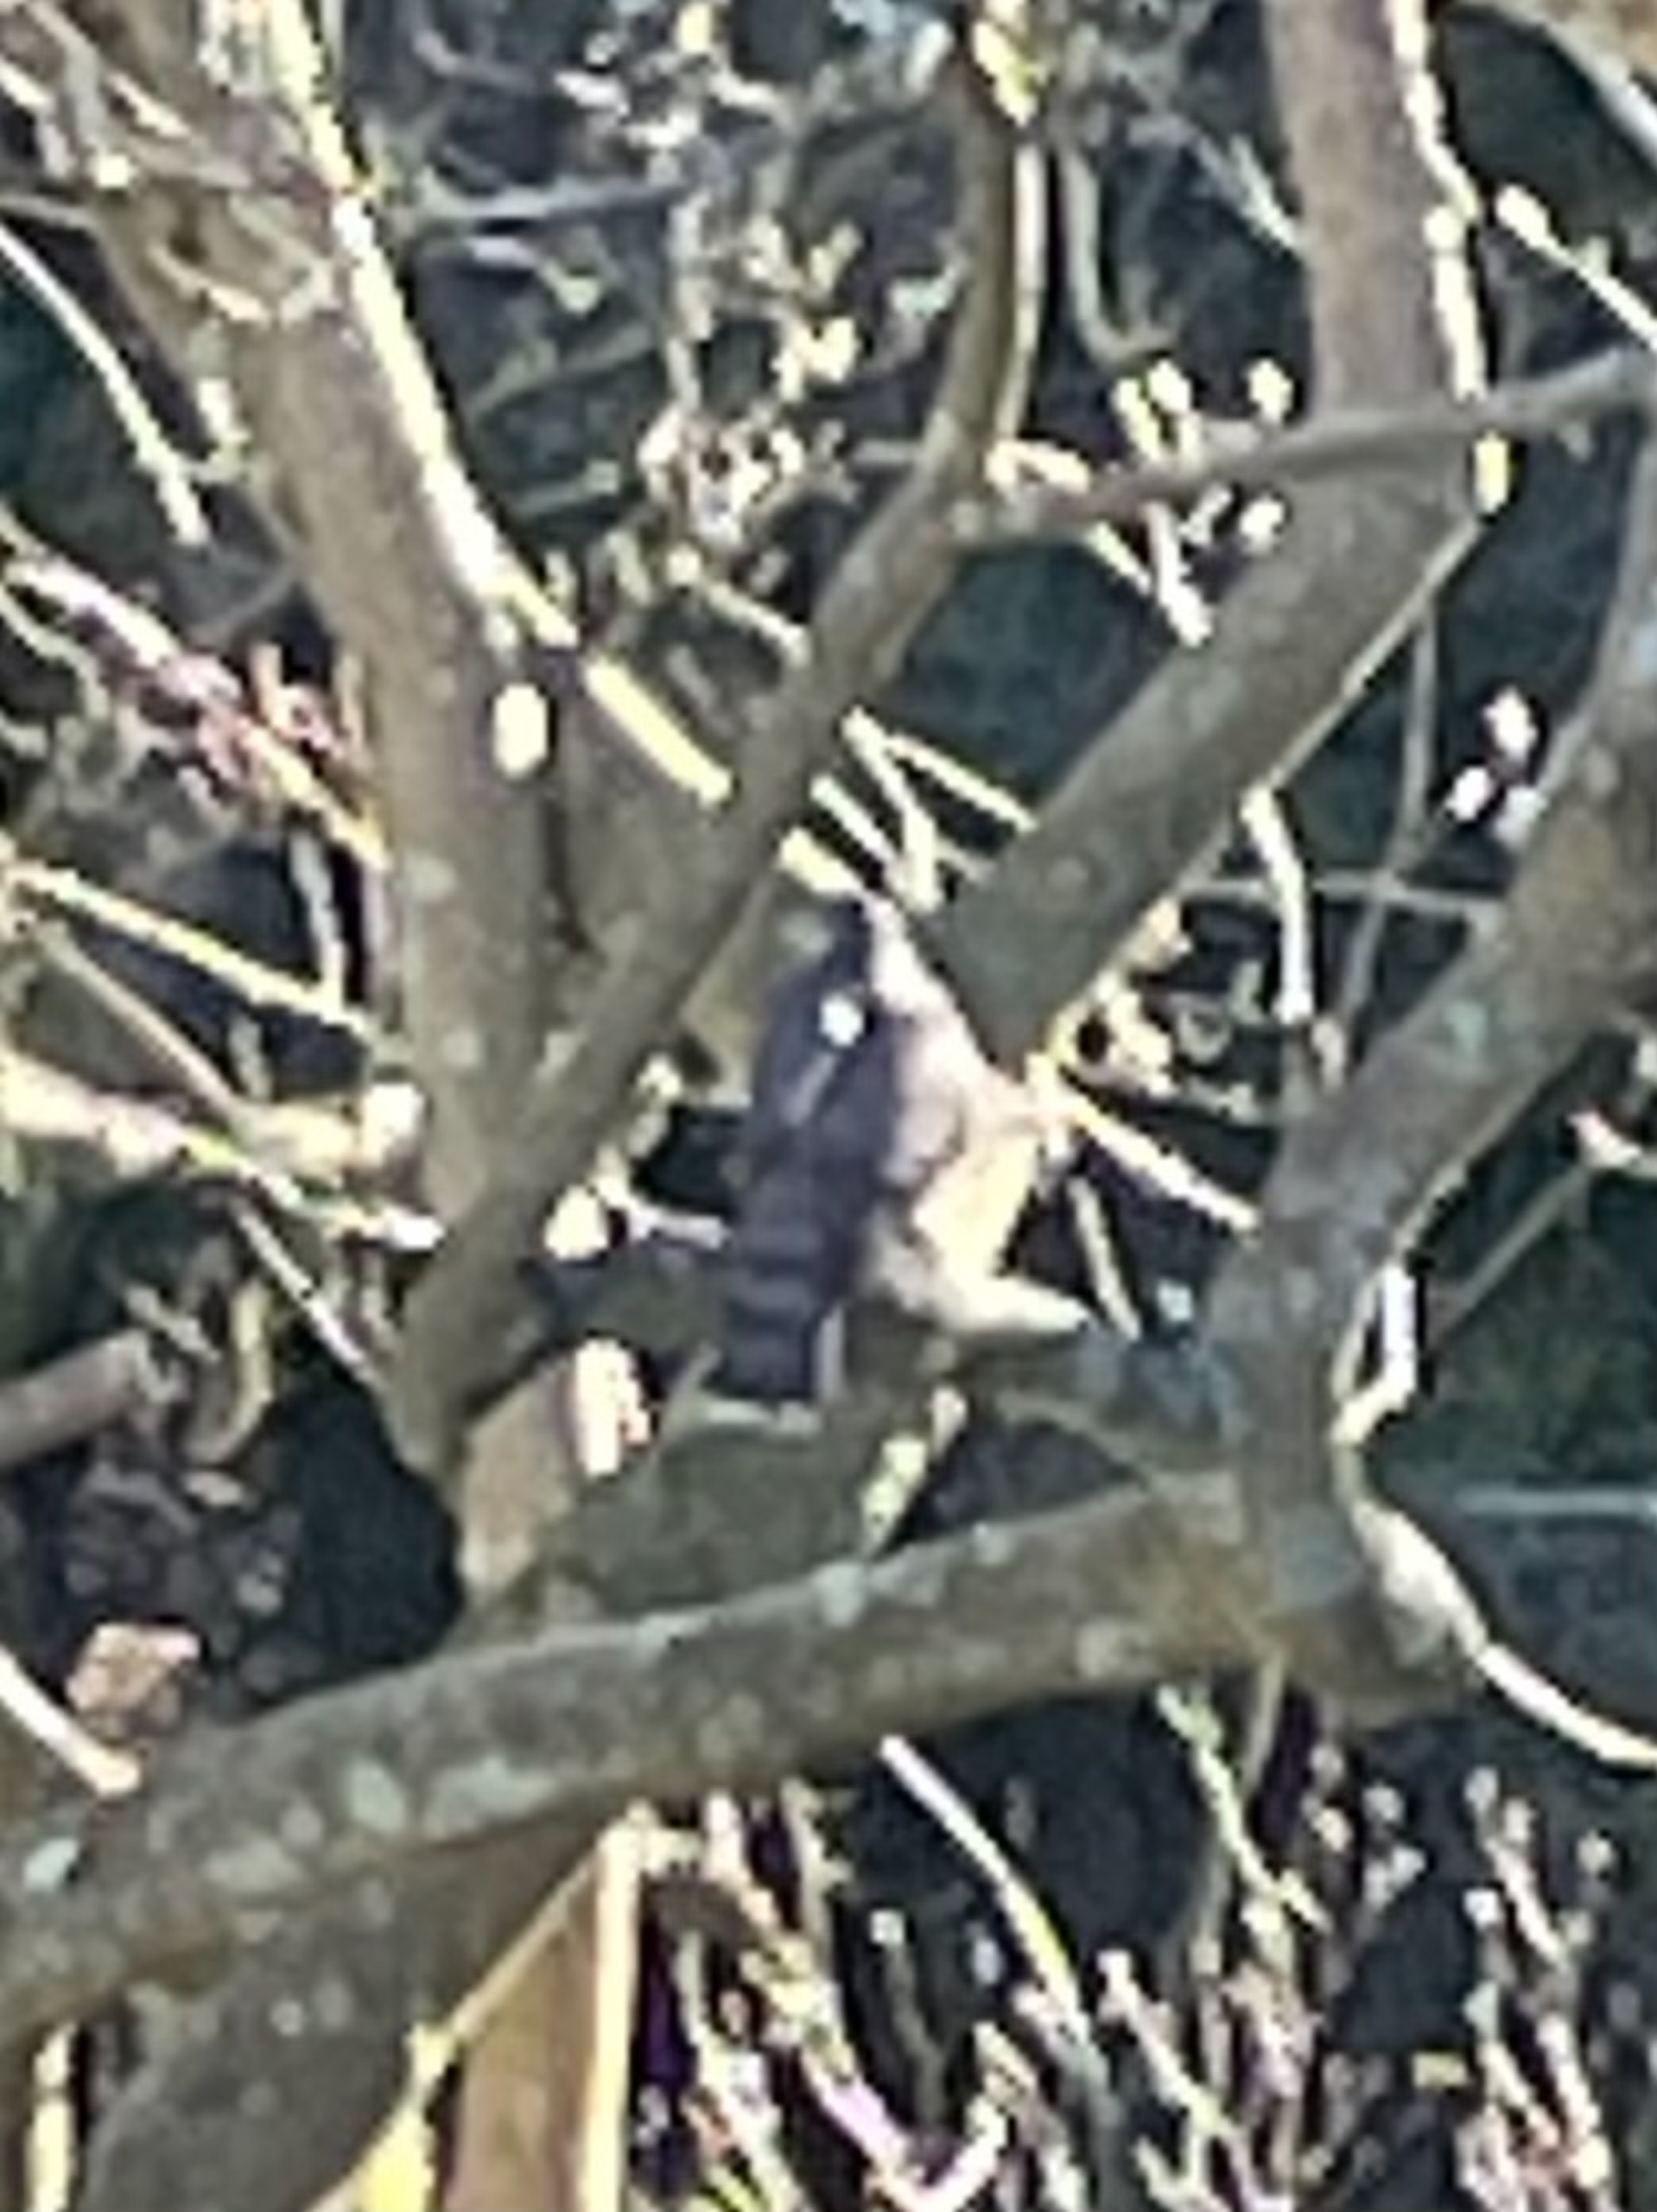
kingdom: Animalia
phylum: Chordata
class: Aves
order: Accipitriformes
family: Accipitridae
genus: Accipiter
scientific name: Accipiter nisus
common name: Spurvehøg
